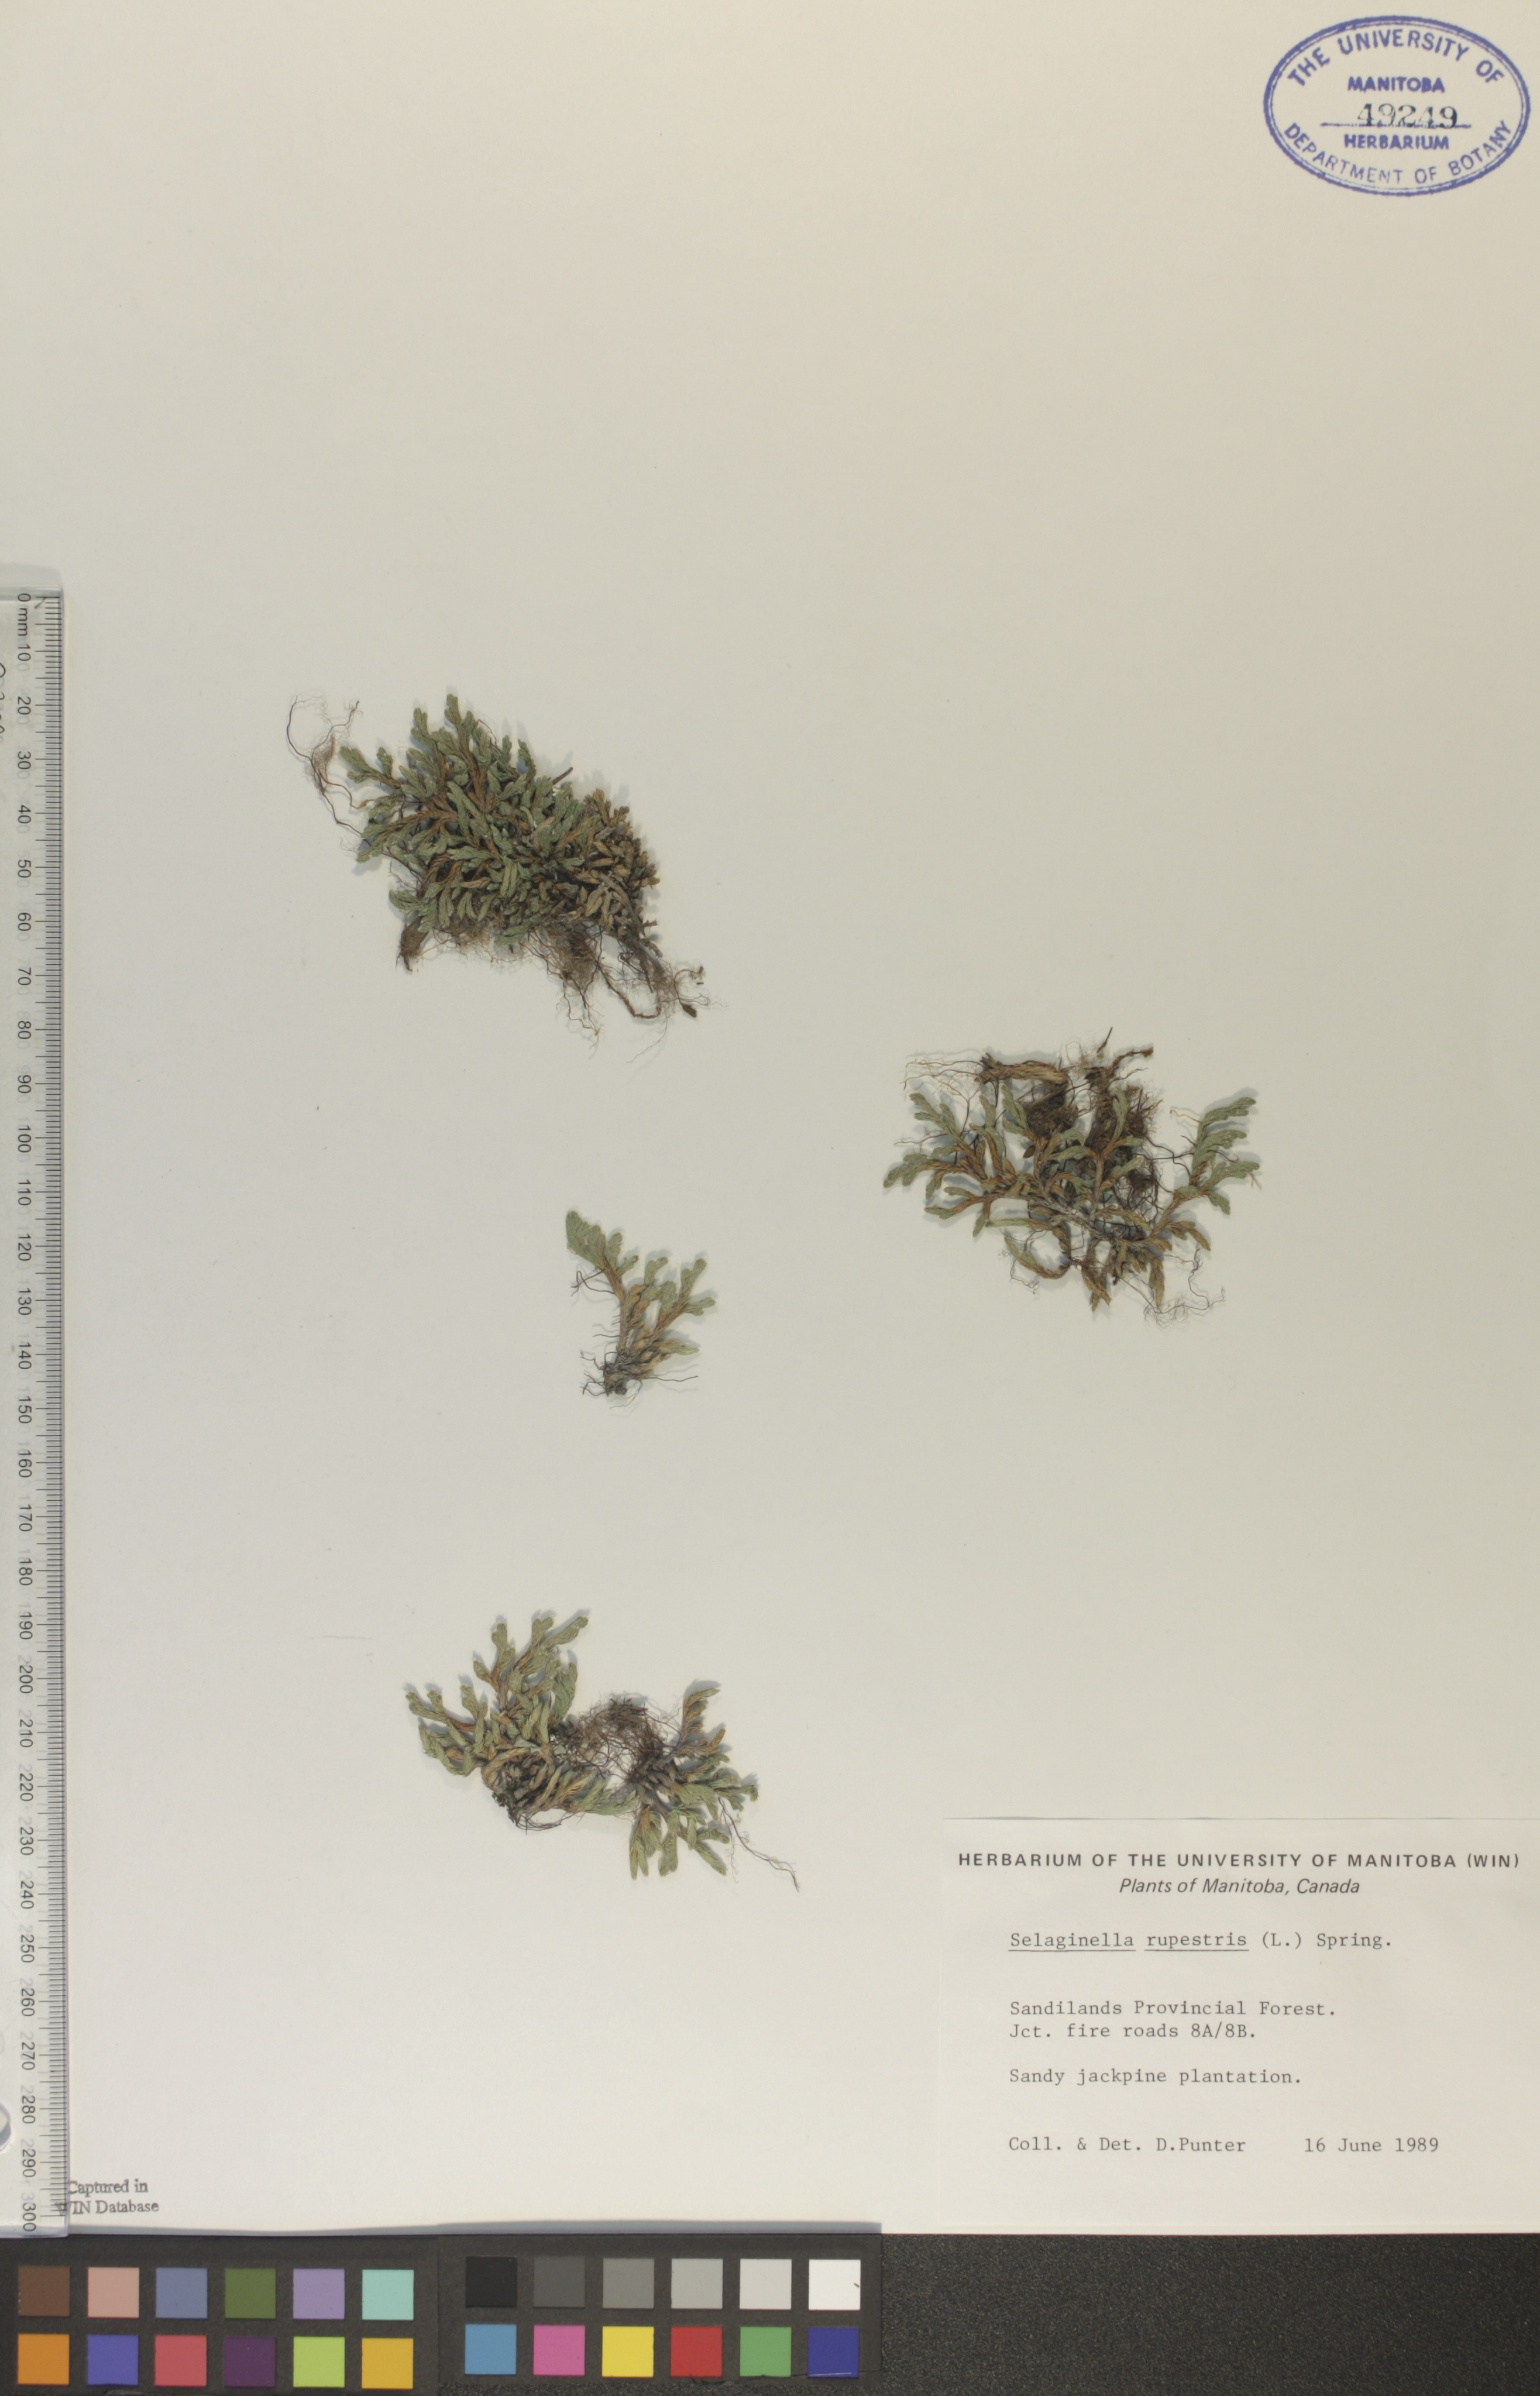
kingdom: Plantae
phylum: Tracheophyta
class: Lycopodiopsida
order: Selaginellales
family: Selaginellaceae
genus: Selaginella
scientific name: Selaginella rupestris
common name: Dwarf spikemoss
